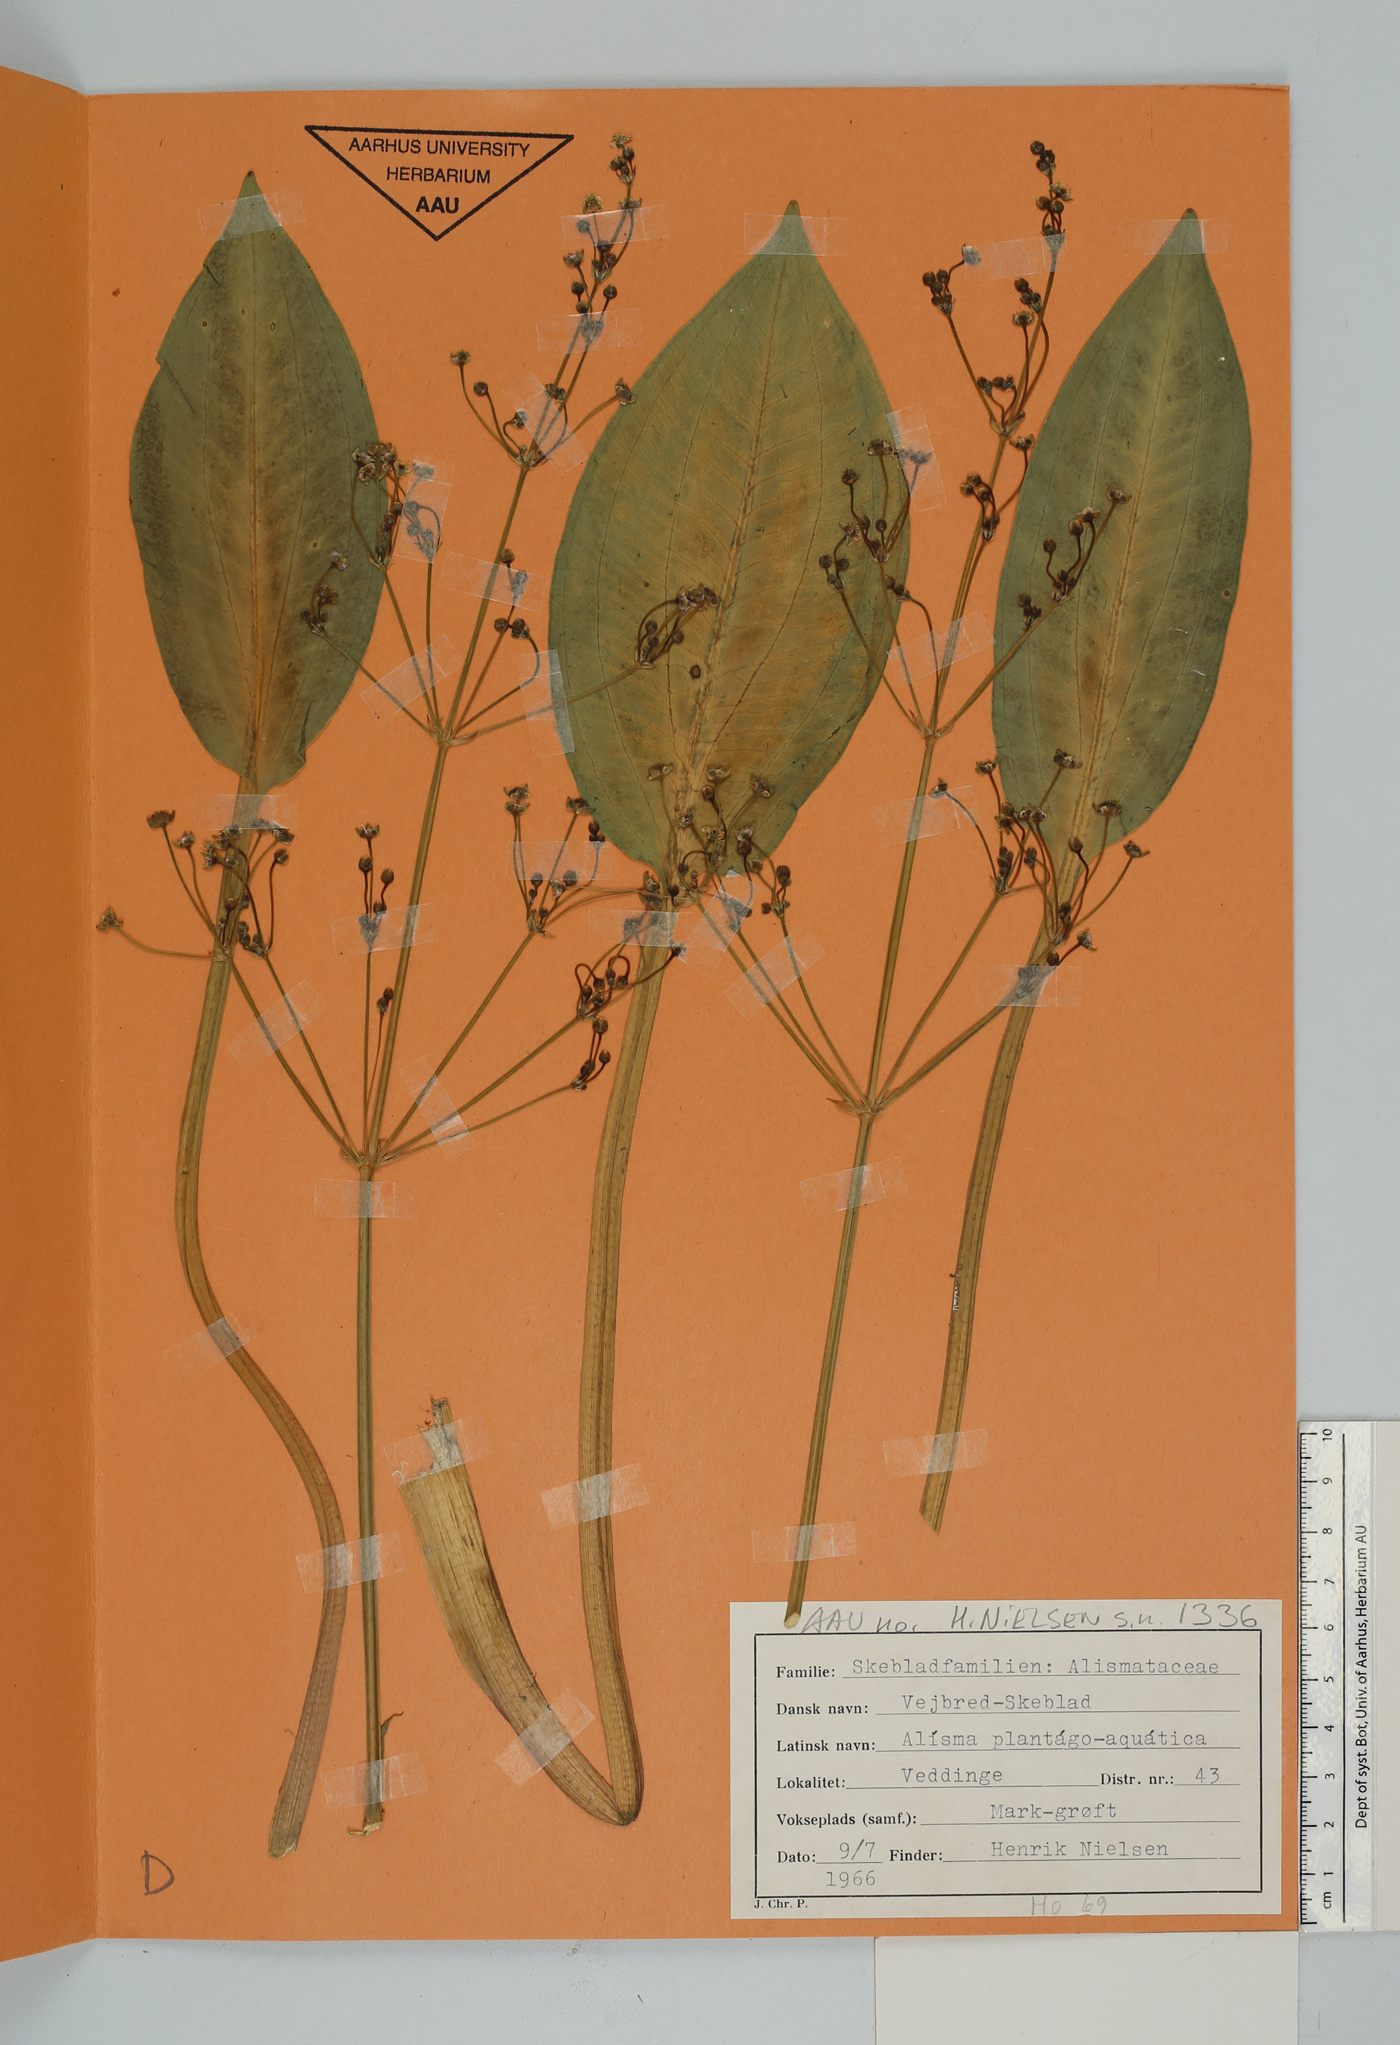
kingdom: Plantae
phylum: Tracheophyta
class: Liliopsida
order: Alismatales
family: Alismataceae
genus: Alisma
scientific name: Alisma plantago-aquatica
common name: Water-plantain
